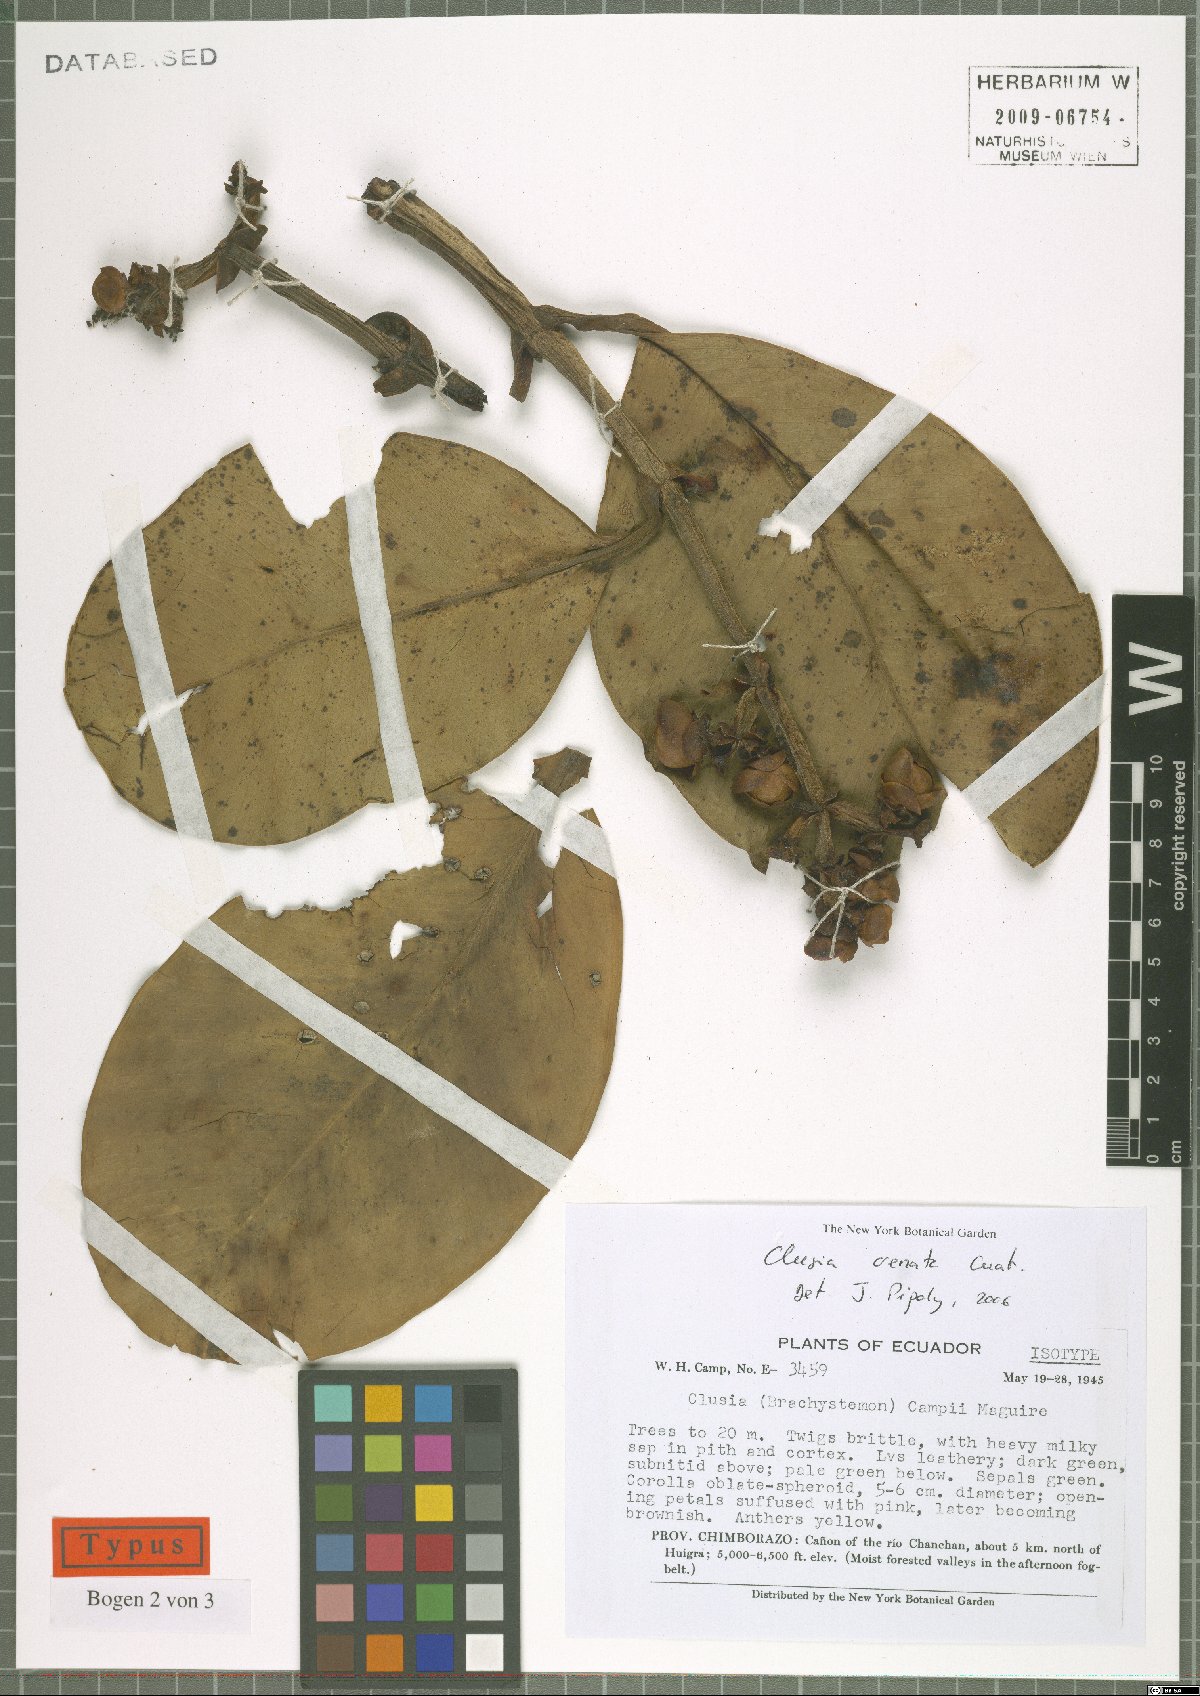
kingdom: Plantae
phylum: Tracheophyta
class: Magnoliopsida
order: Malpighiales
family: Clusiaceae
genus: Clusia
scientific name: Clusia crenata
